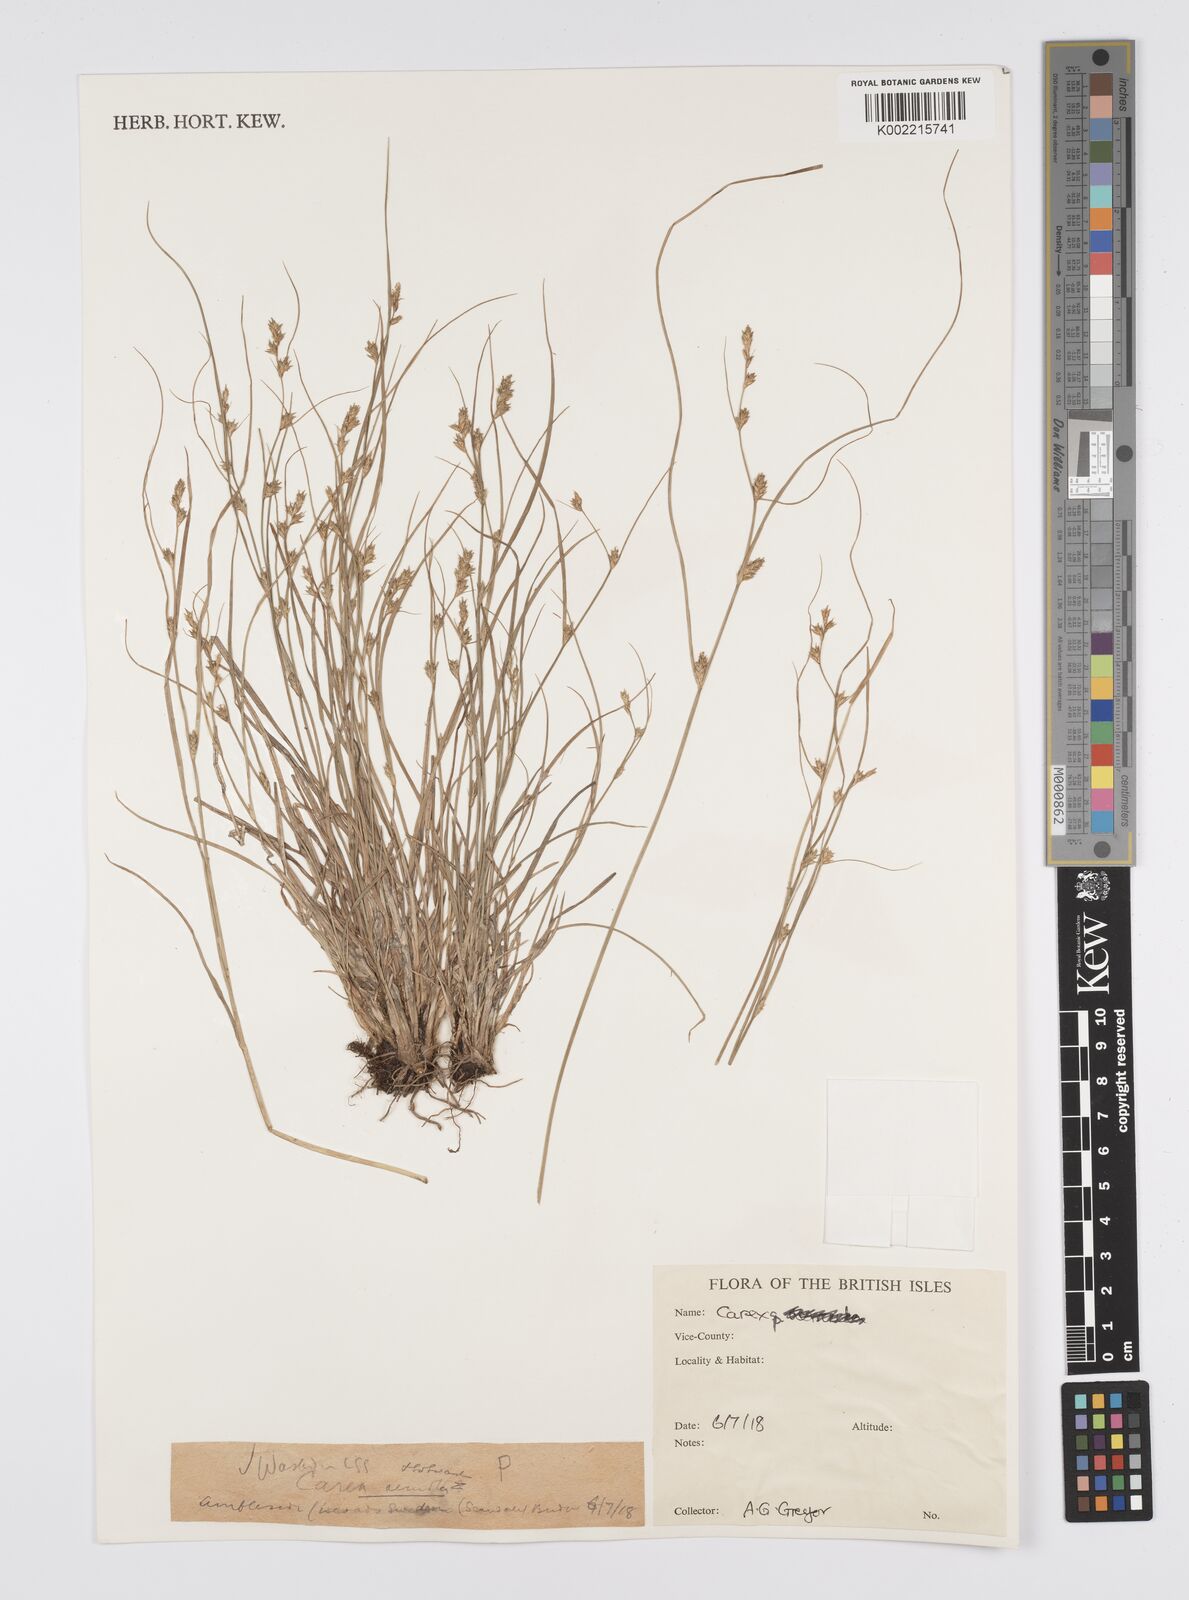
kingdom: Plantae
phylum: Tracheophyta
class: Liliopsida
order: Poales
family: Cyperaceae
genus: Carex
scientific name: Carex
